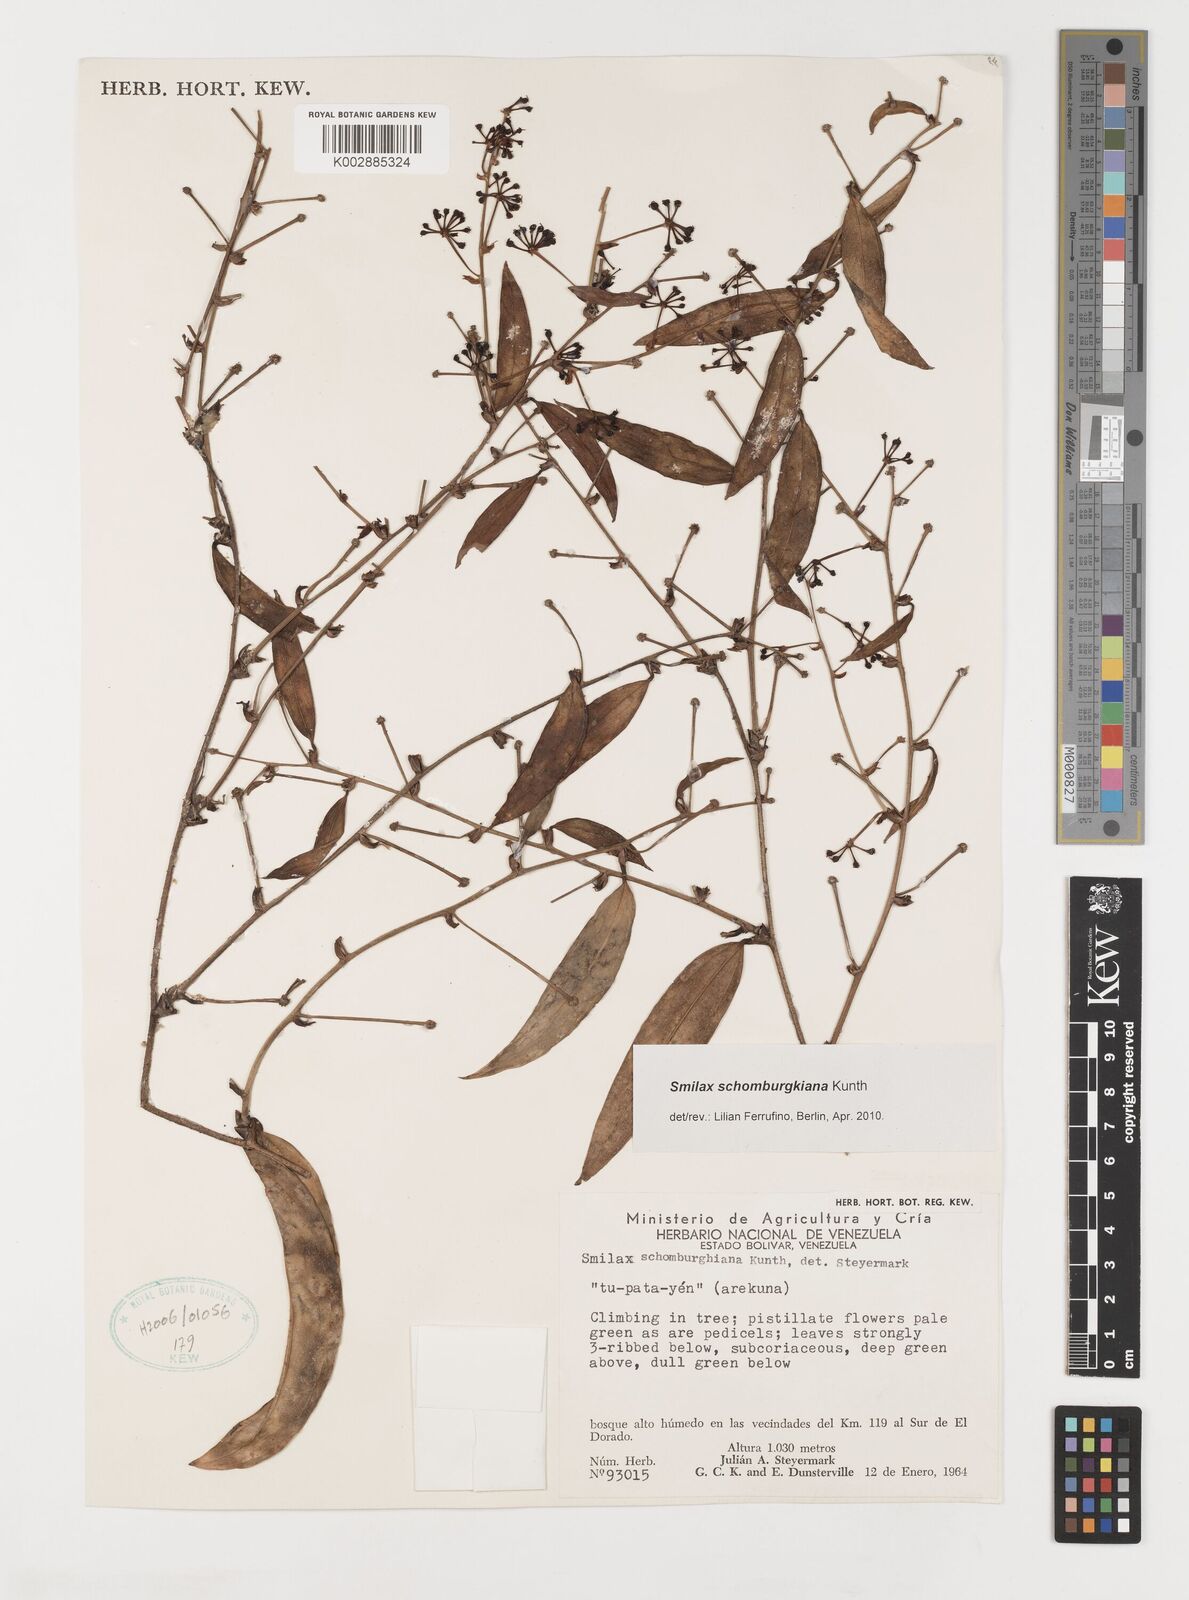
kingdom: Plantae
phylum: Tracheophyta
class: Liliopsida
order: Liliales
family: Smilacaceae
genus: Smilax
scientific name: Smilax schomburgkiana
